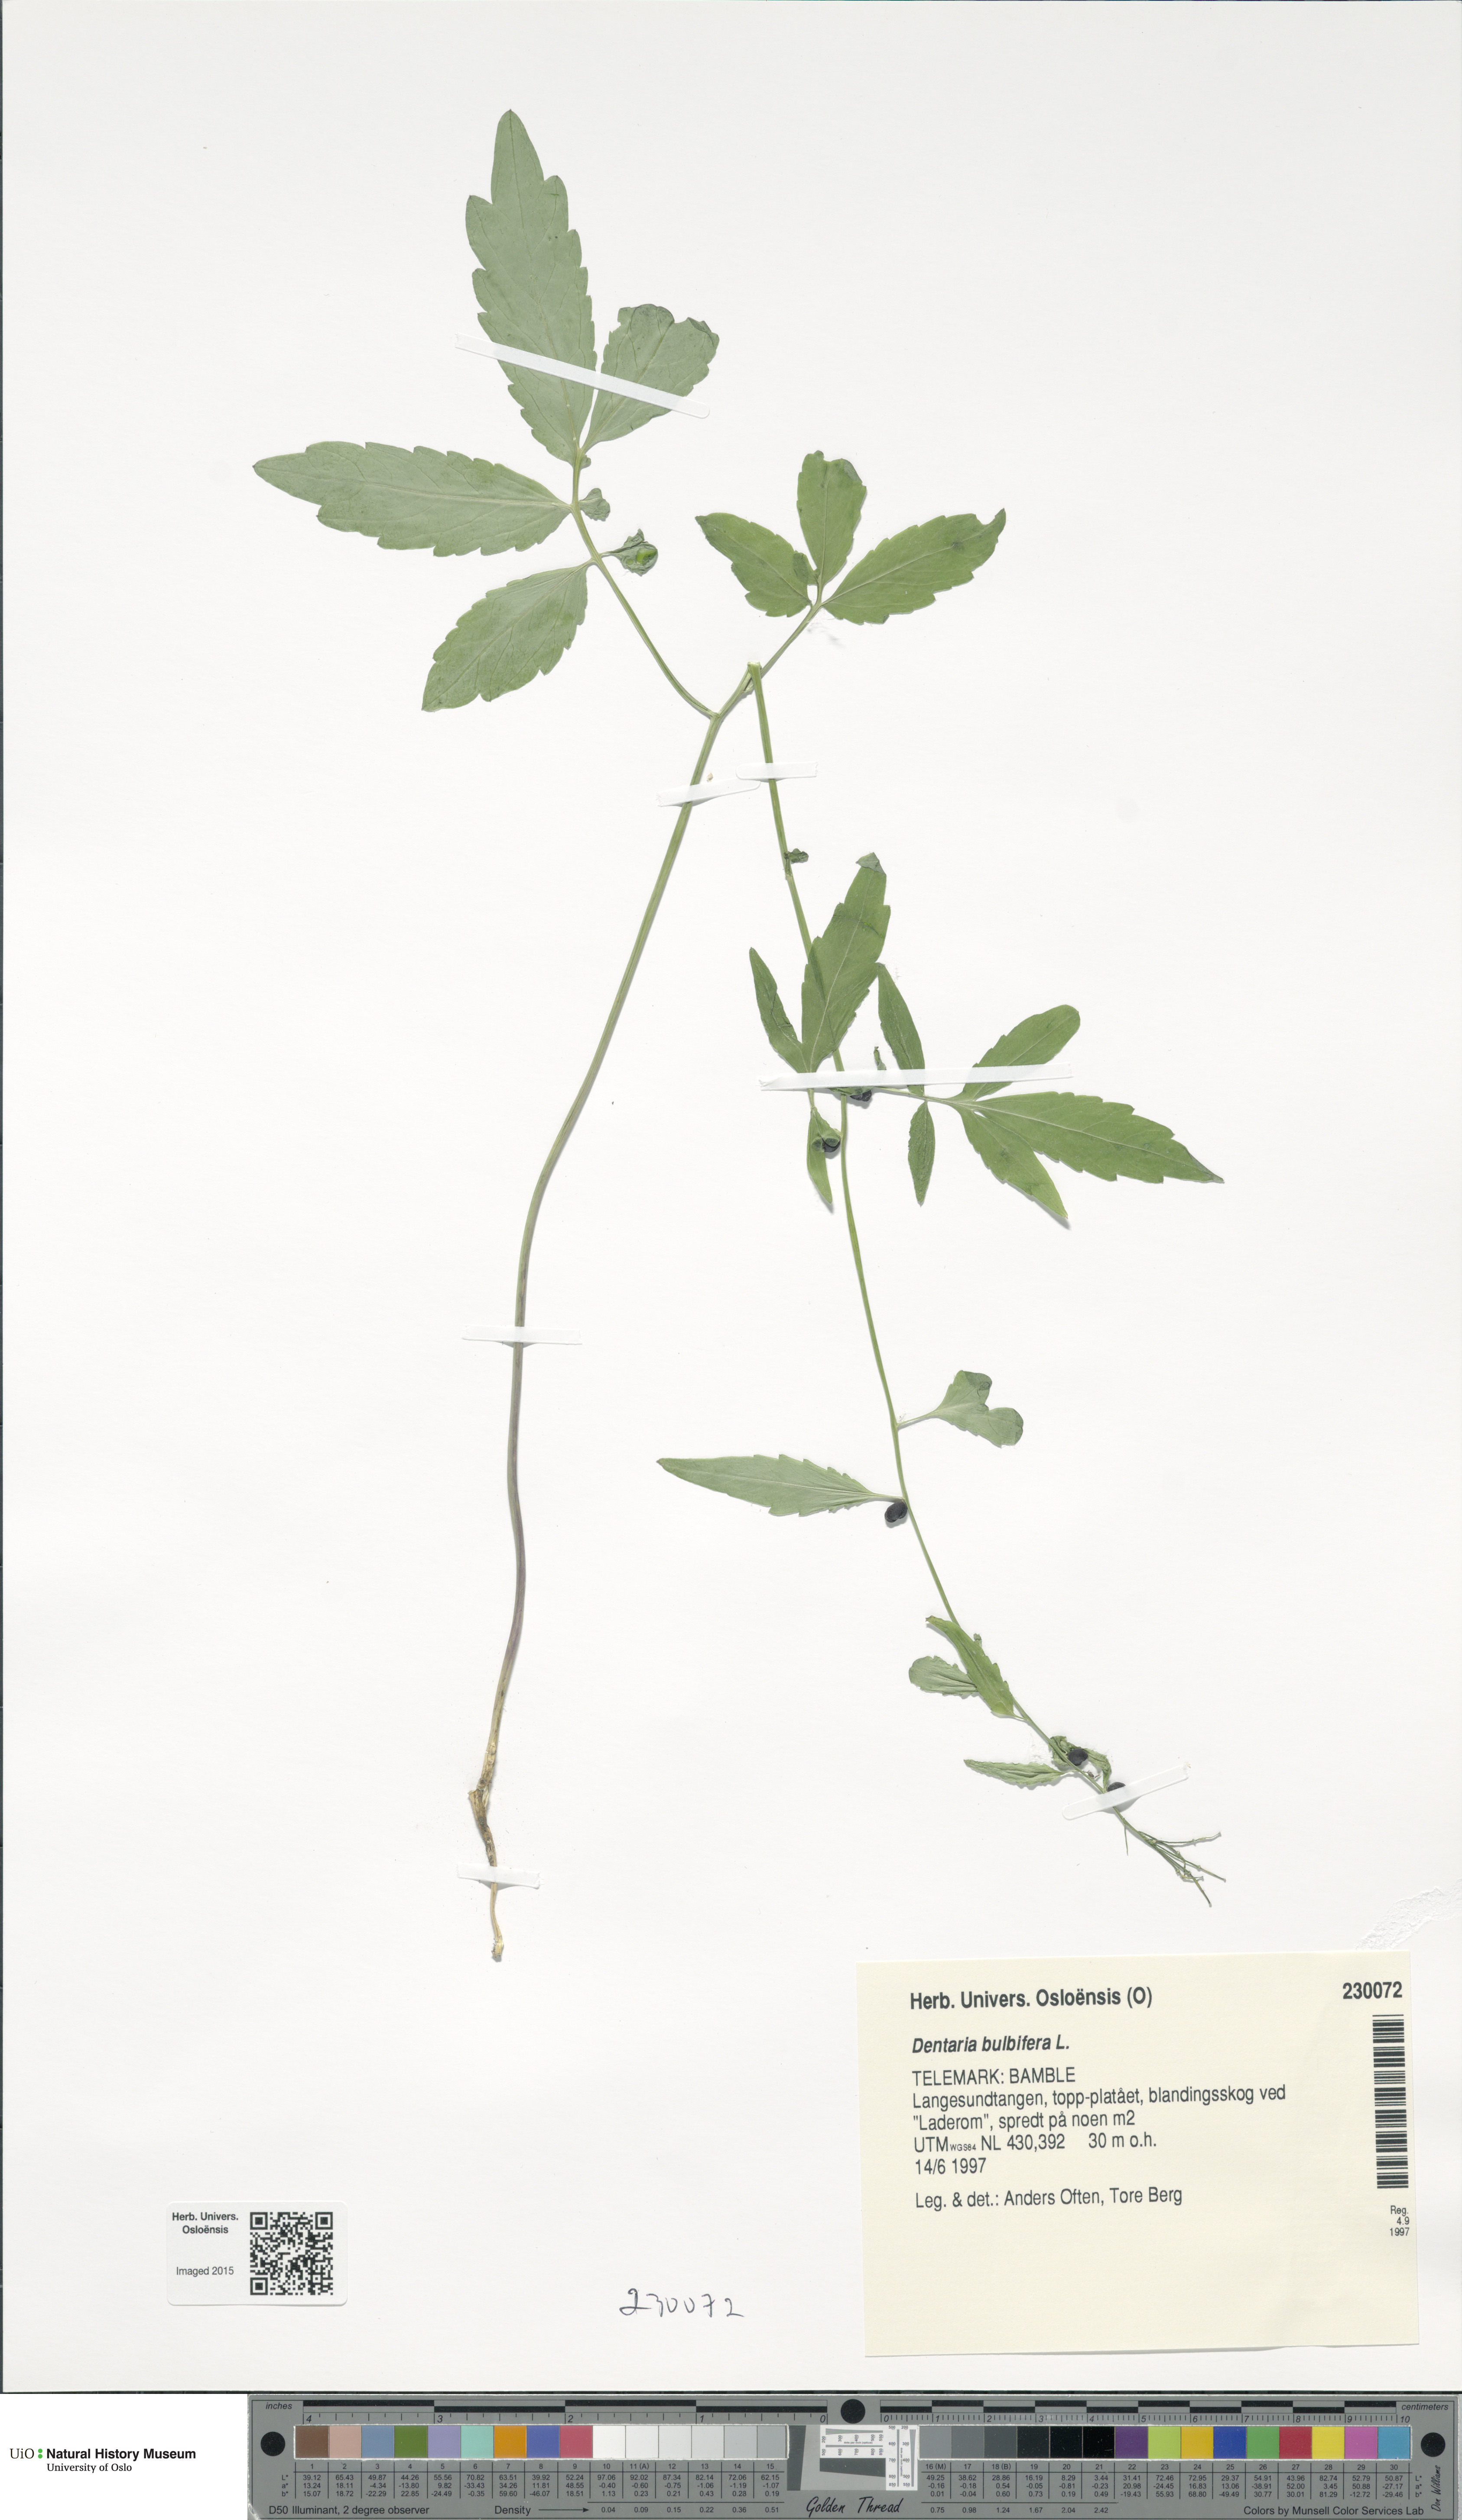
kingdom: Plantae
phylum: Tracheophyta
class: Magnoliopsida
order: Brassicales
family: Brassicaceae
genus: Cardamine
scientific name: Cardamine bulbifera
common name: Coralroot bittercress
